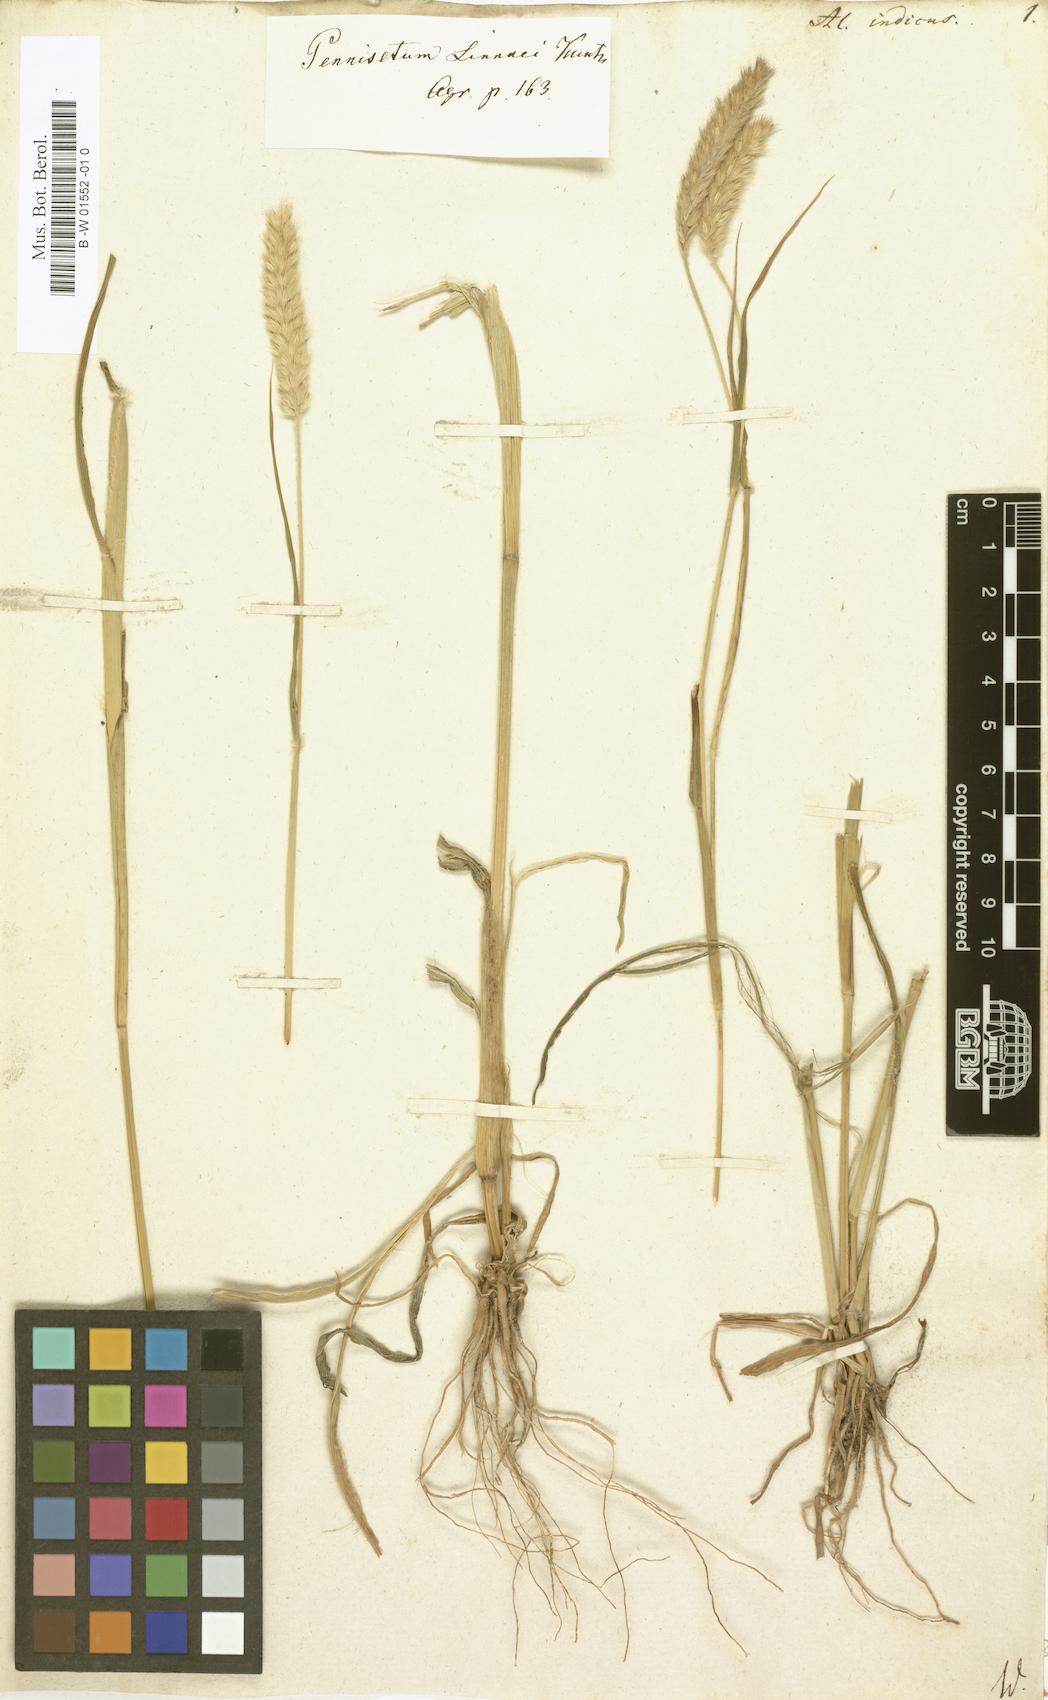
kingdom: Plantae
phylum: Tracheophyta
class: Liliopsida
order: Poales
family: Poaceae
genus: Cenchrus
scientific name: Cenchrus alopecuroides
